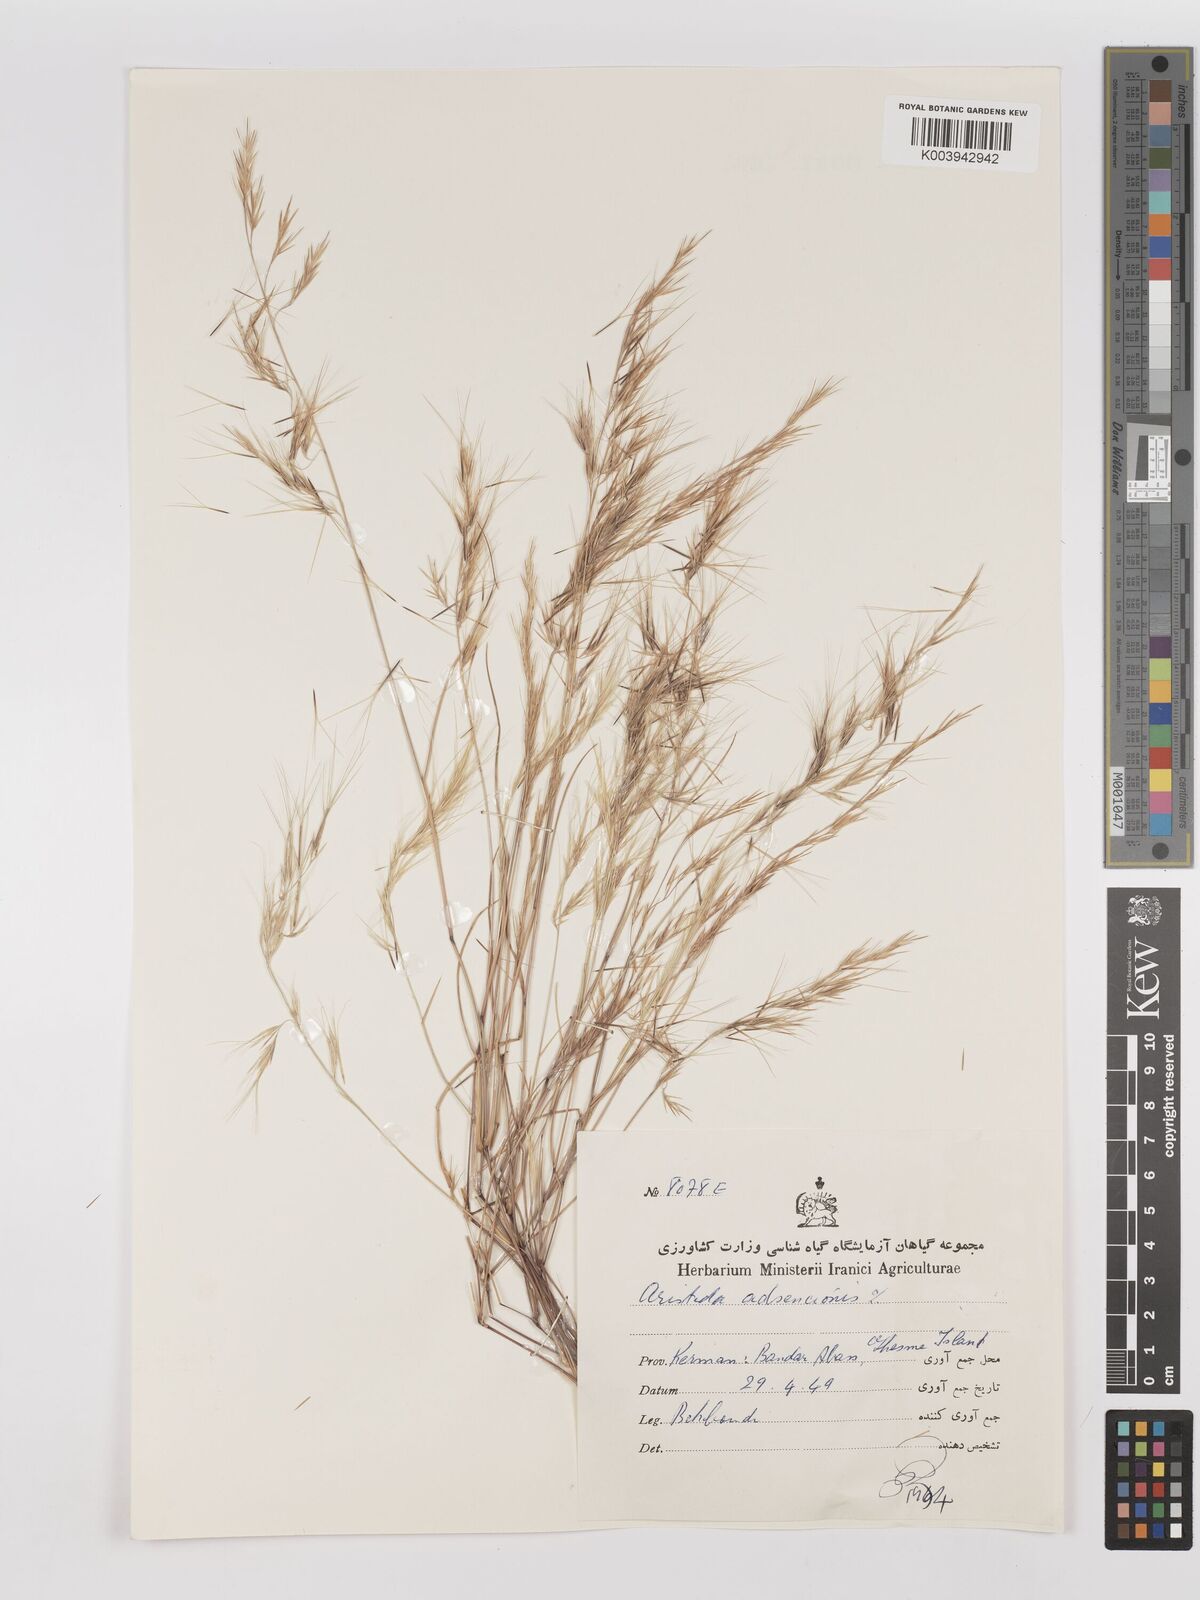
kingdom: Plantae
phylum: Tracheophyta
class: Liliopsida
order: Poales
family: Poaceae
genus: Aristida
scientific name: Aristida adscensionis
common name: Sixweeks threeawn
